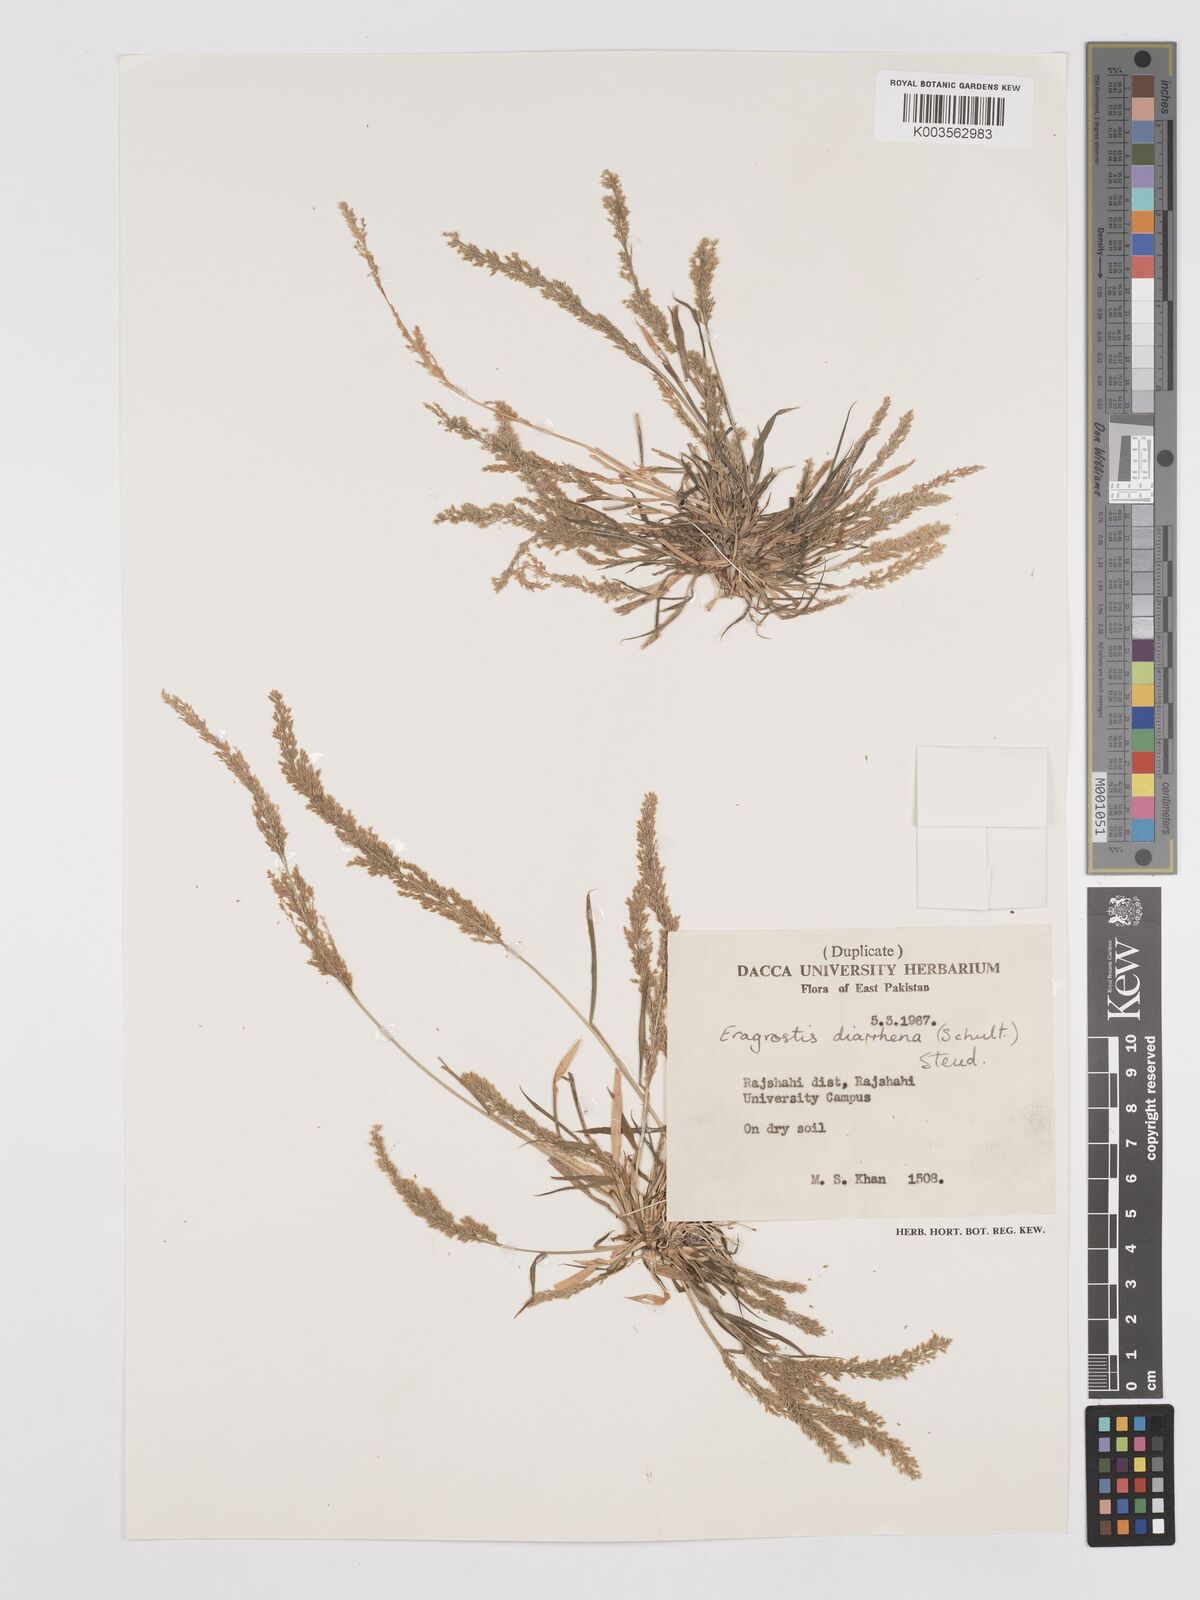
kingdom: Plantae
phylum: Tracheophyta
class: Liliopsida
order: Poales
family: Poaceae
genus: Eragrostis
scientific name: Eragrostis japonica
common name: Pond lovegrass
